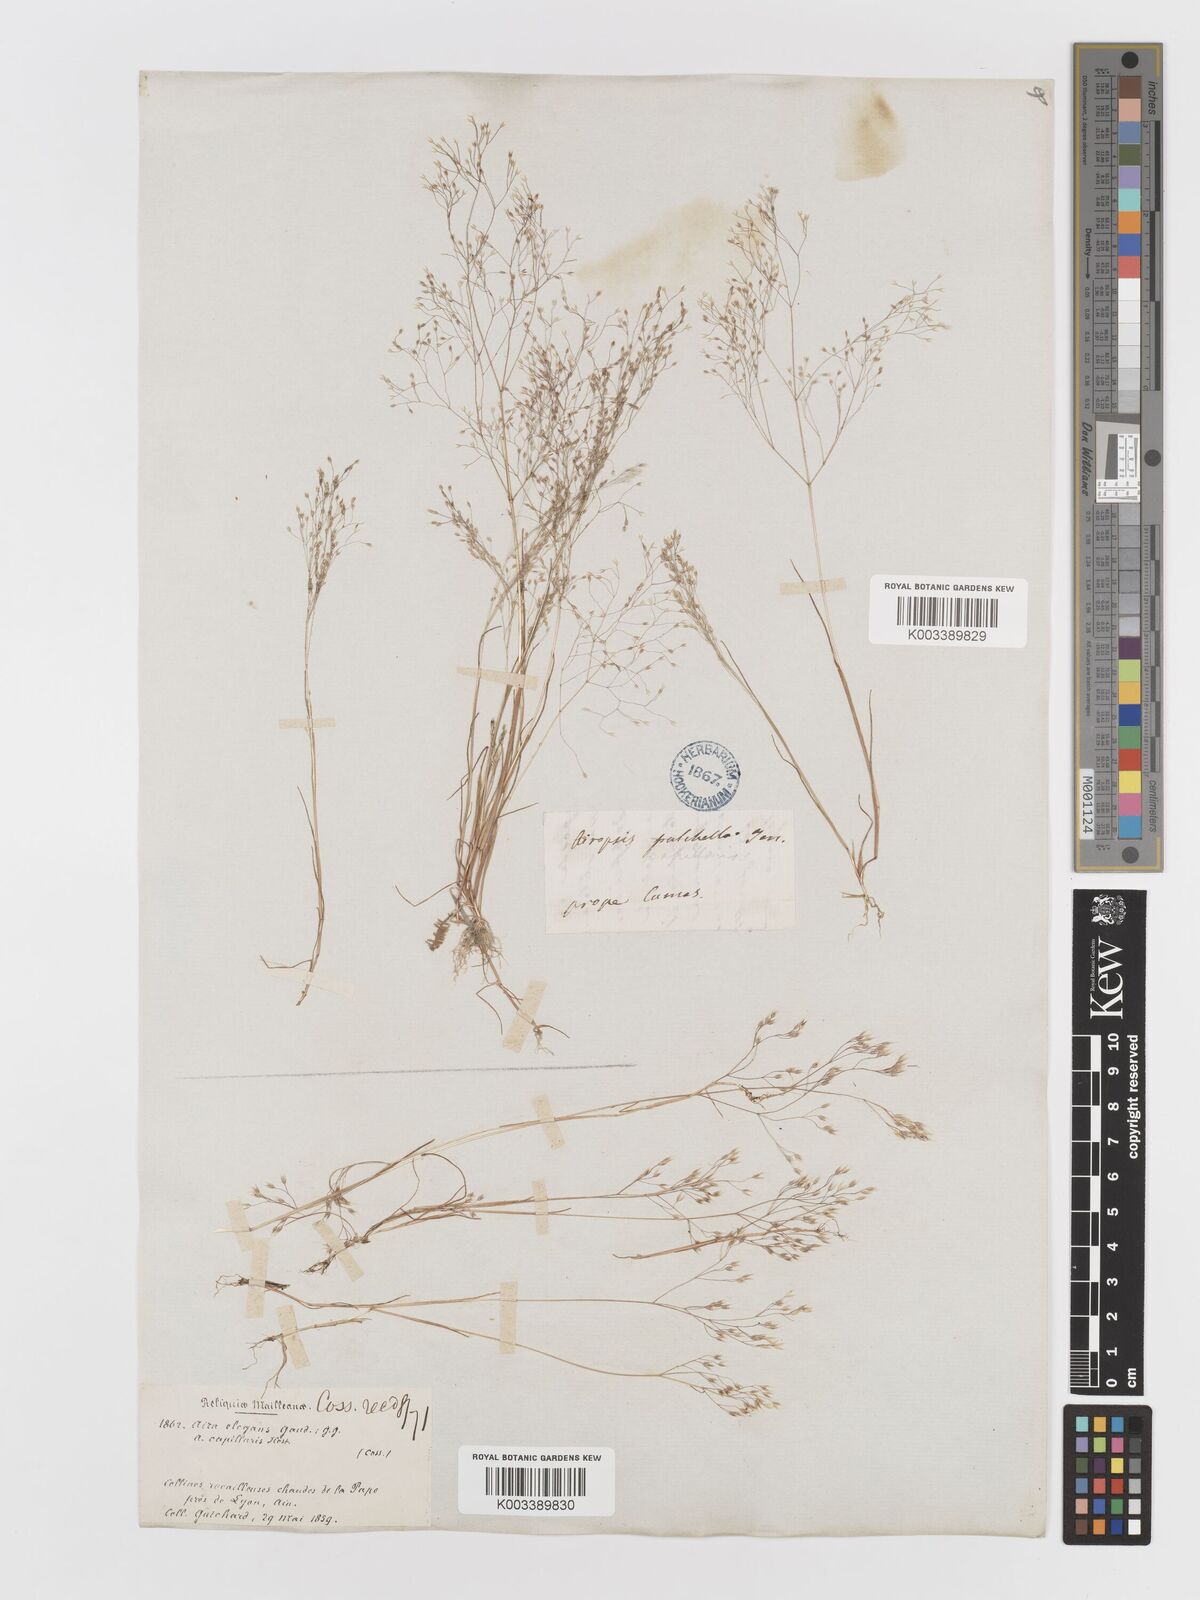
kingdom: Plantae
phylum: Tracheophyta
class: Liliopsida
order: Poales
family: Poaceae
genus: Aira
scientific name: Aira elegans
